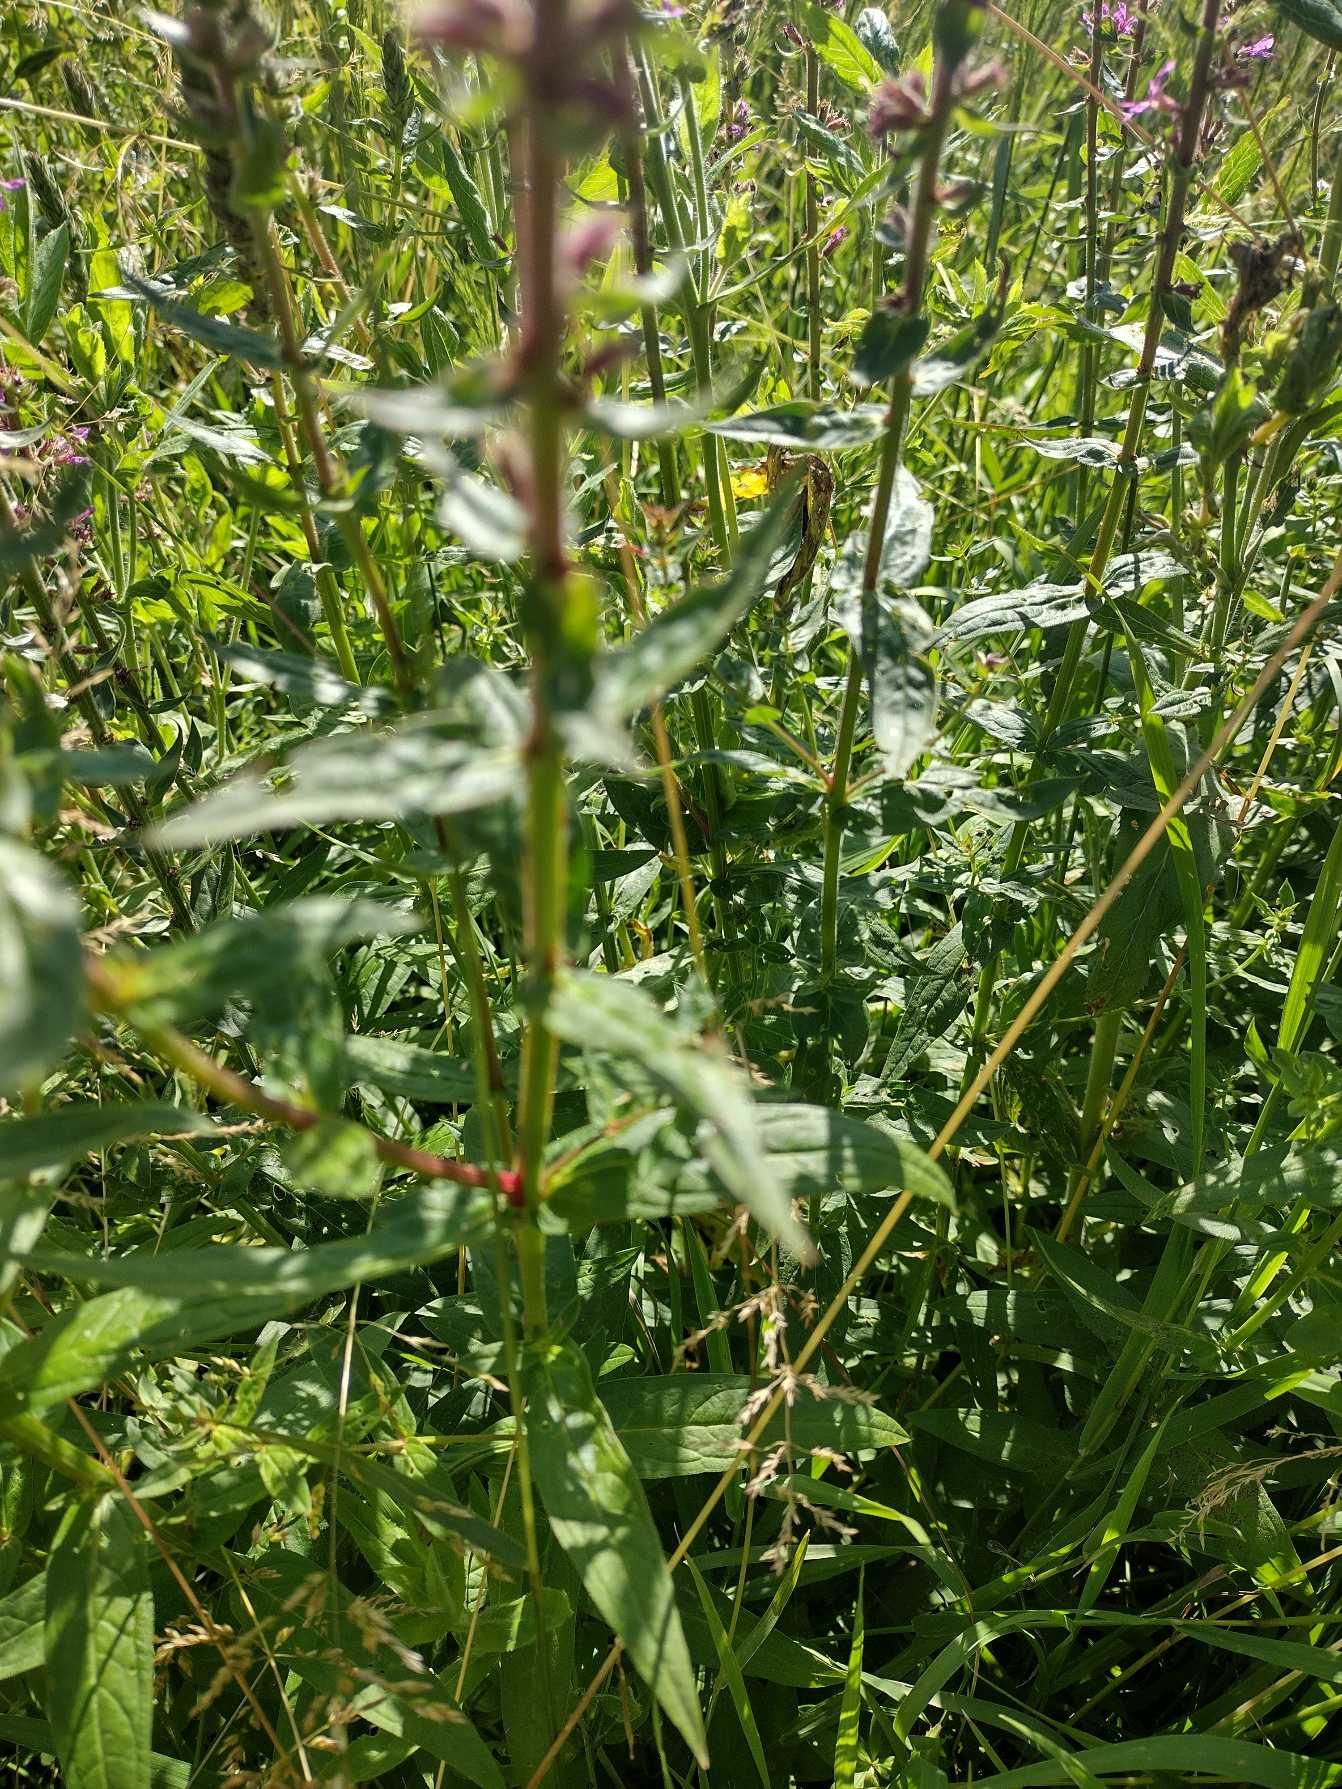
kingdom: Plantae
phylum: Tracheophyta
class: Magnoliopsida
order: Myrtales
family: Lythraceae
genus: Lythrum
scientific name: Lythrum salicaria
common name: Kattehale
